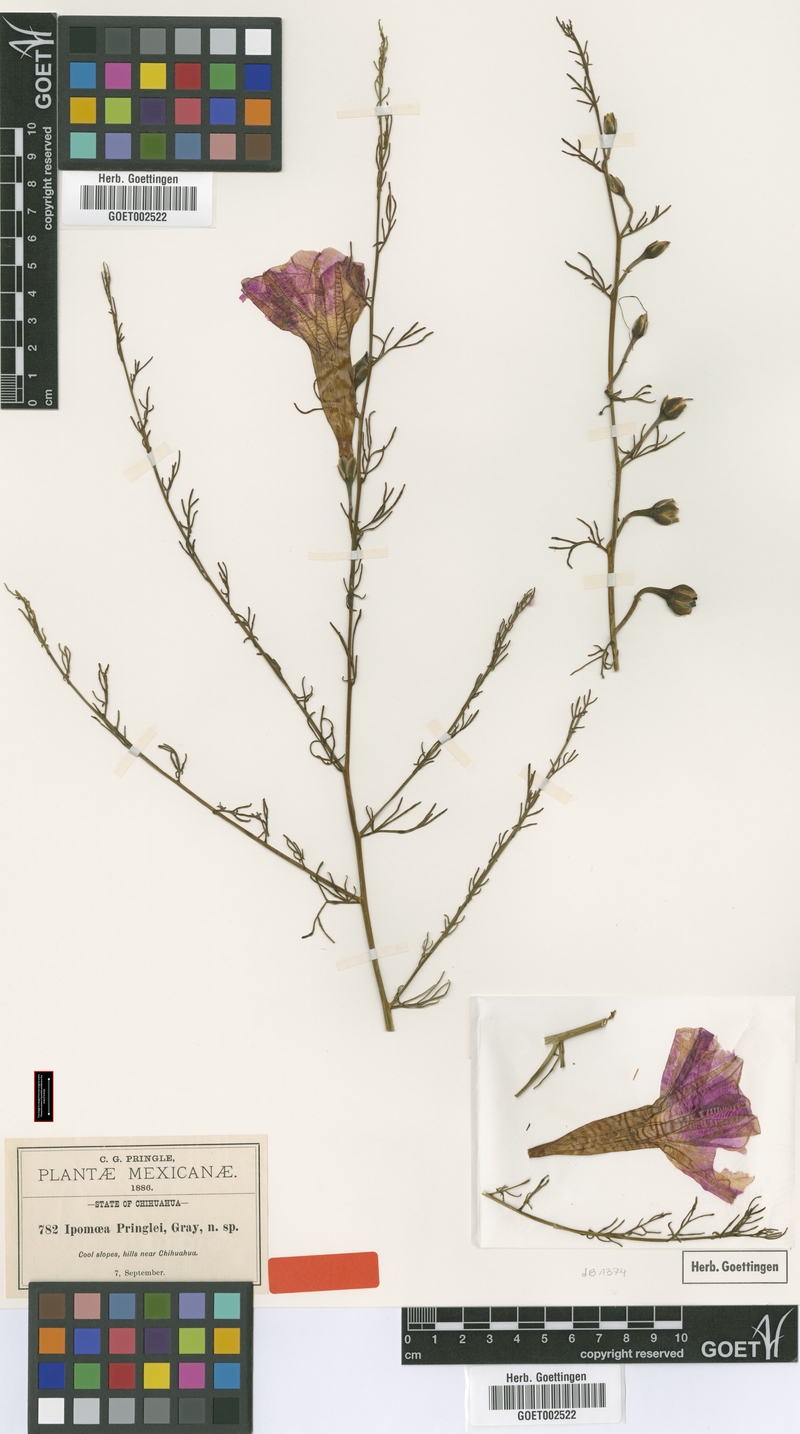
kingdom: Plantae
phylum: Tracheophyta
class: Magnoliopsida
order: Solanales
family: Convolvulaceae
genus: Ipomoea
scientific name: Ipomoea sescossiana
